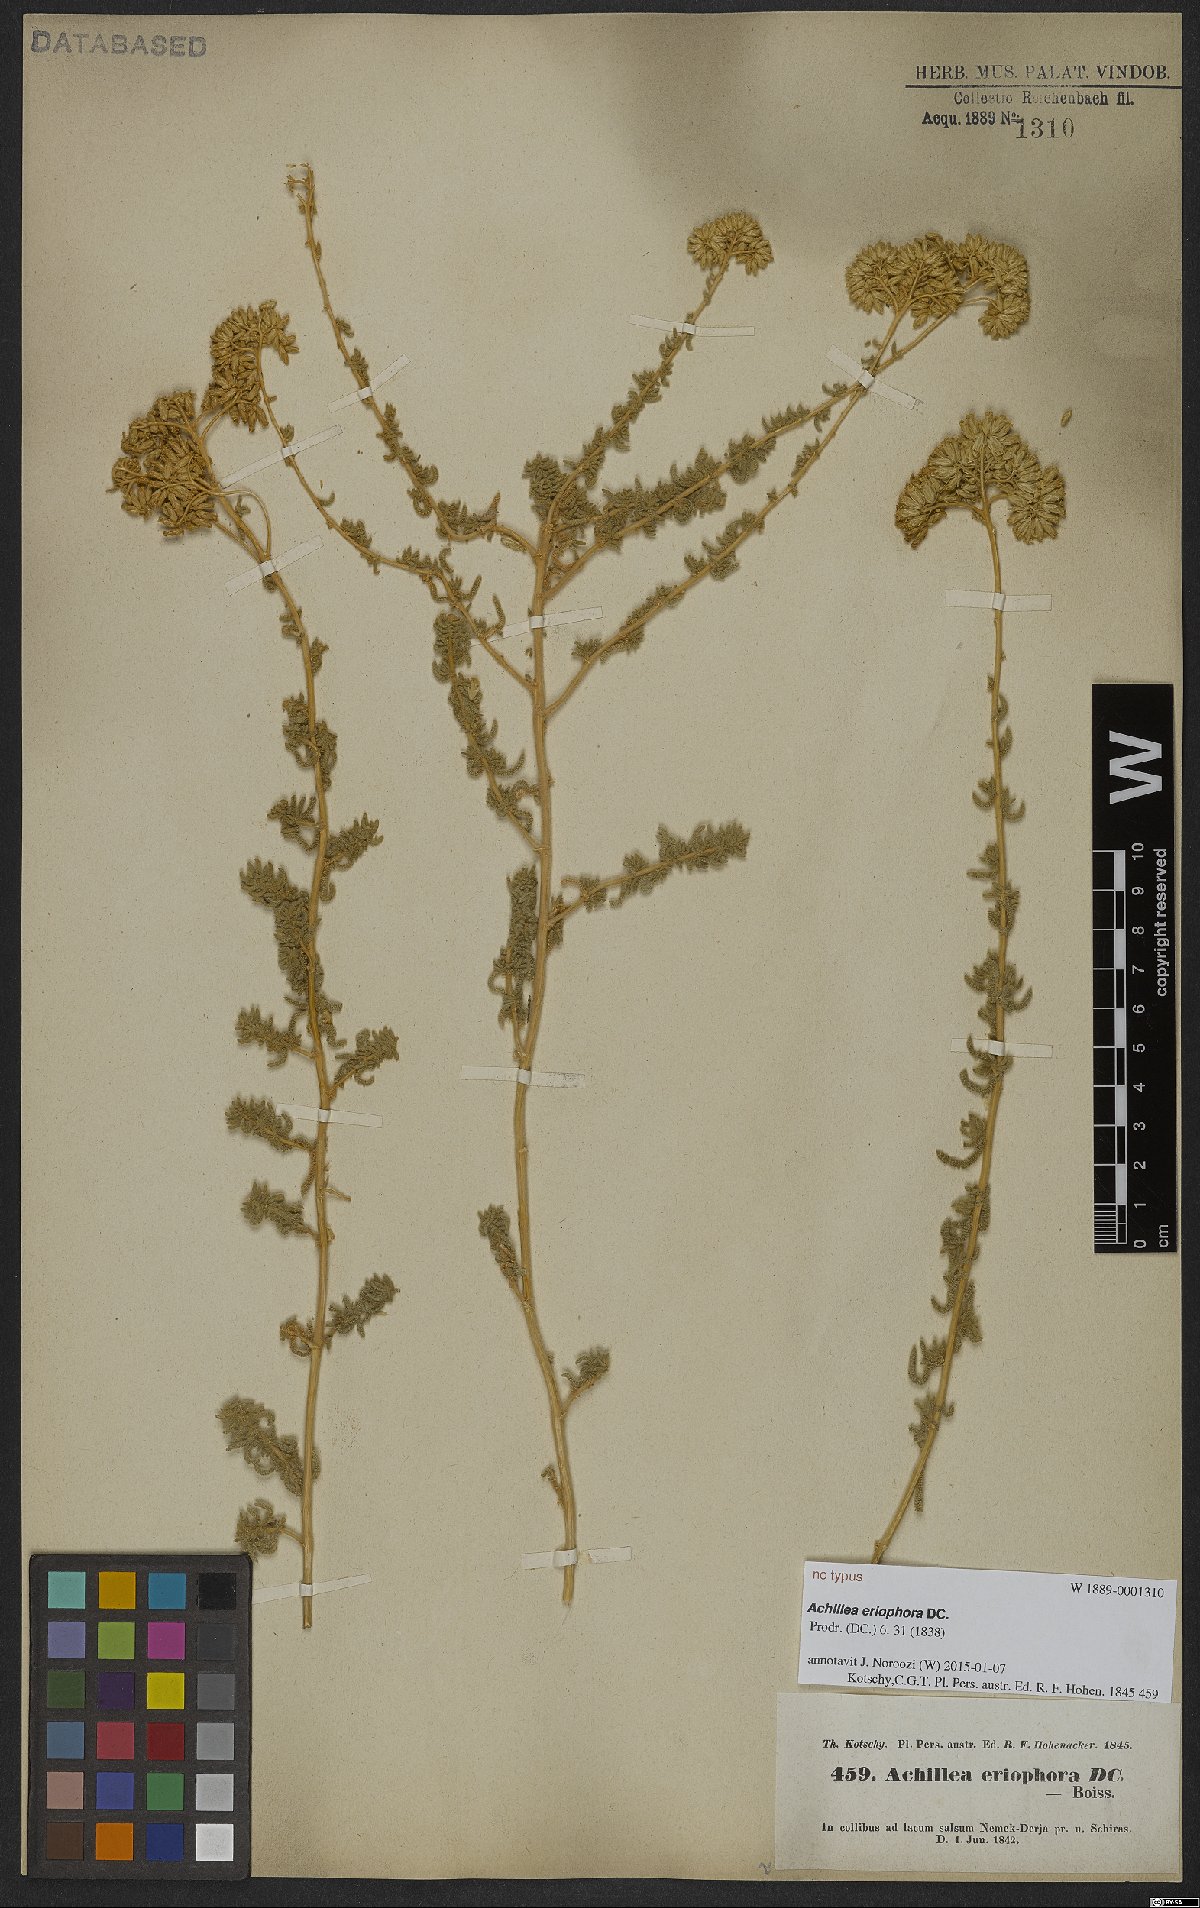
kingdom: Plantae
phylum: Tracheophyta
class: Magnoliopsida
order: Asterales
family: Asteraceae
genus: Achillea
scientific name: Achillea eriophora
